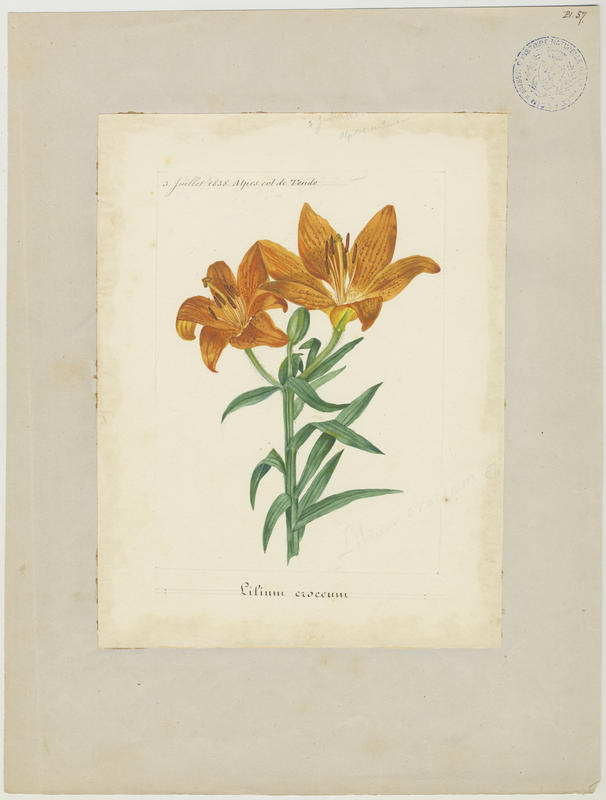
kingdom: Plantae
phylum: Tracheophyta
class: Liliopsida
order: Liliales
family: Liliaceae
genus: Lilium
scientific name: Lilium bulbiferum
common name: Orange lily
